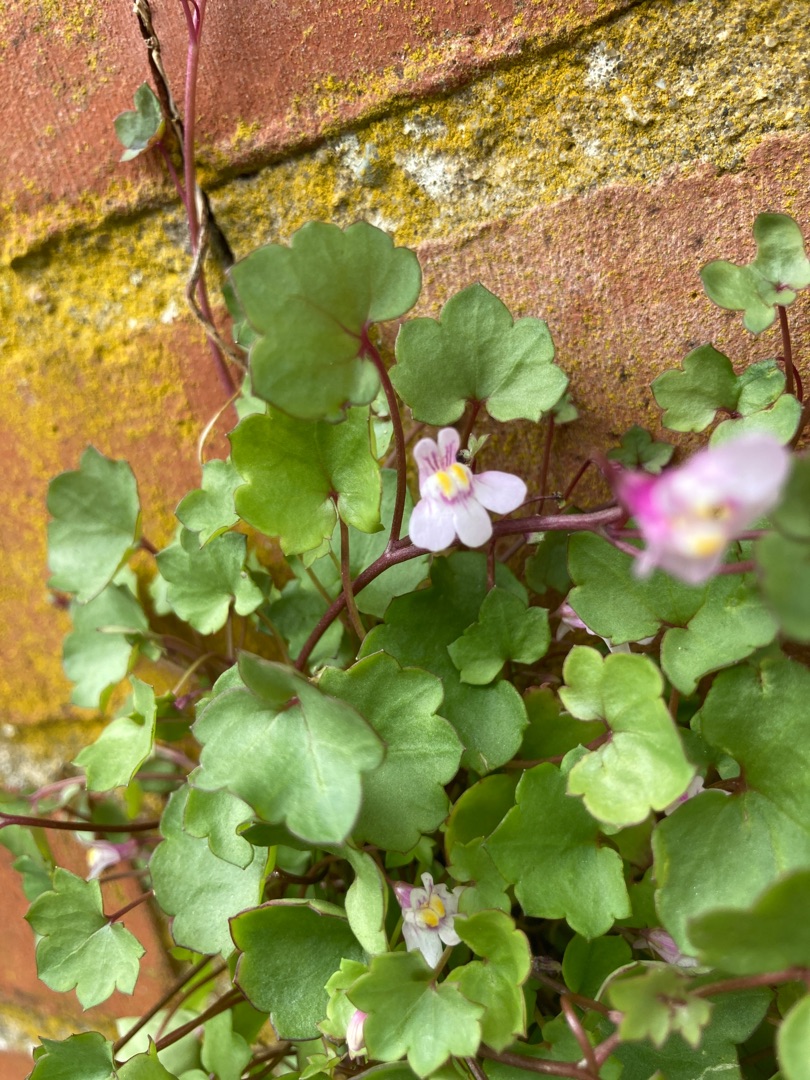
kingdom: Plantae
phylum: Tracheophyta
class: Magnoliopsida
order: Lamiales
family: Plantaginaceae
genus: Cymbalaria
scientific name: Cymbalaria muralis
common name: Vedbend-torskemund
